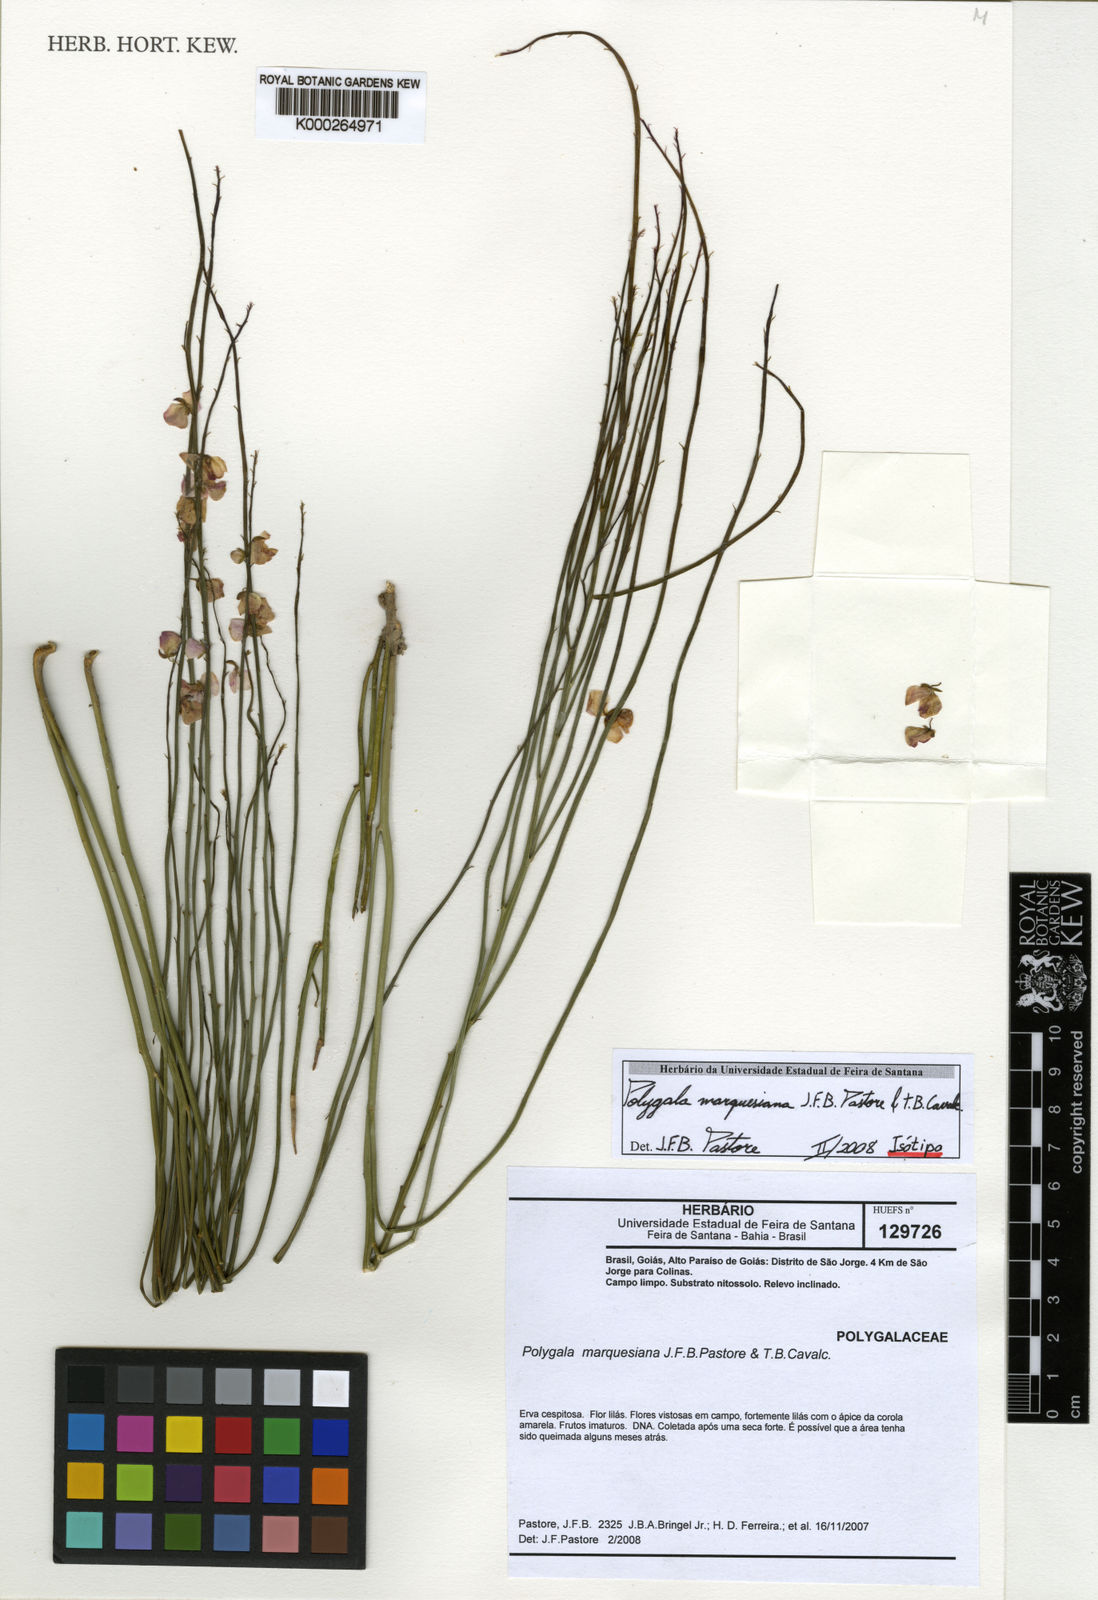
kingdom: Plantae
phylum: Tracheophyta
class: Magnoliopsida
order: Fabales
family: Polygalaceae
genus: Asemeia
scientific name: Asemeia marquesiana
